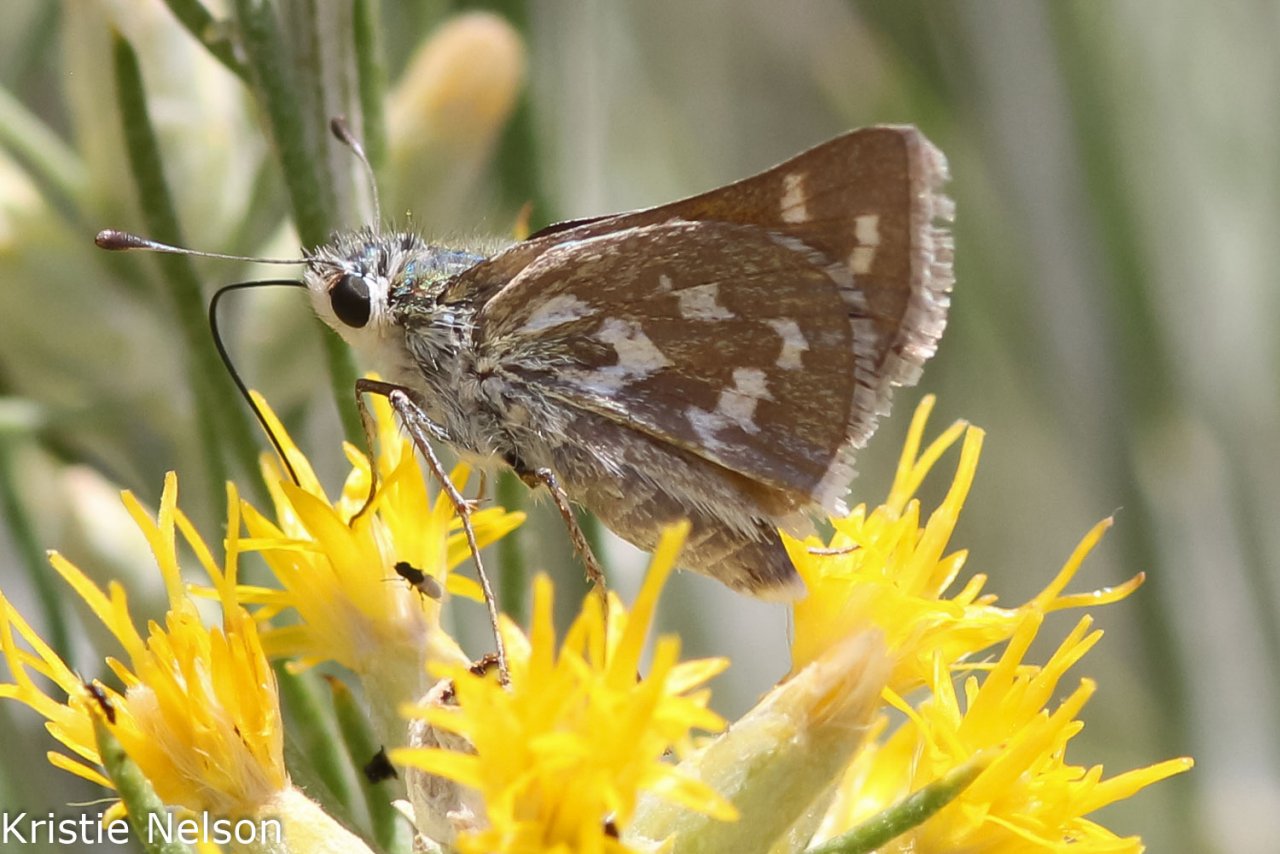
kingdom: Animalia
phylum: Arthropoda
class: Insecta
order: Lepidoptera
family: Hesperiidae
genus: Hesperia
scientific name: Hesperia comma
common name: Western Branded Skipper
